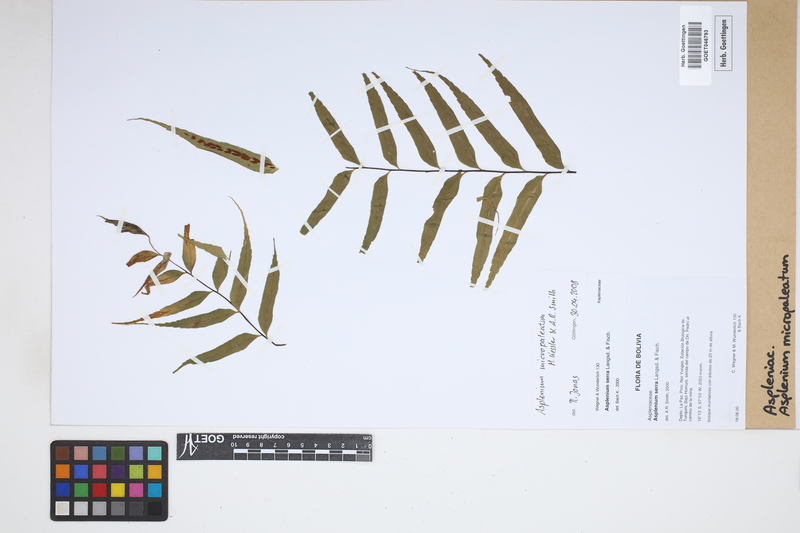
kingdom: Plantae
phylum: Tracheophyta
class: Polypodiopsida
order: Polypodiales
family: Aspleniaceae
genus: Asplenium
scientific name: Asplenium micropaleatum
